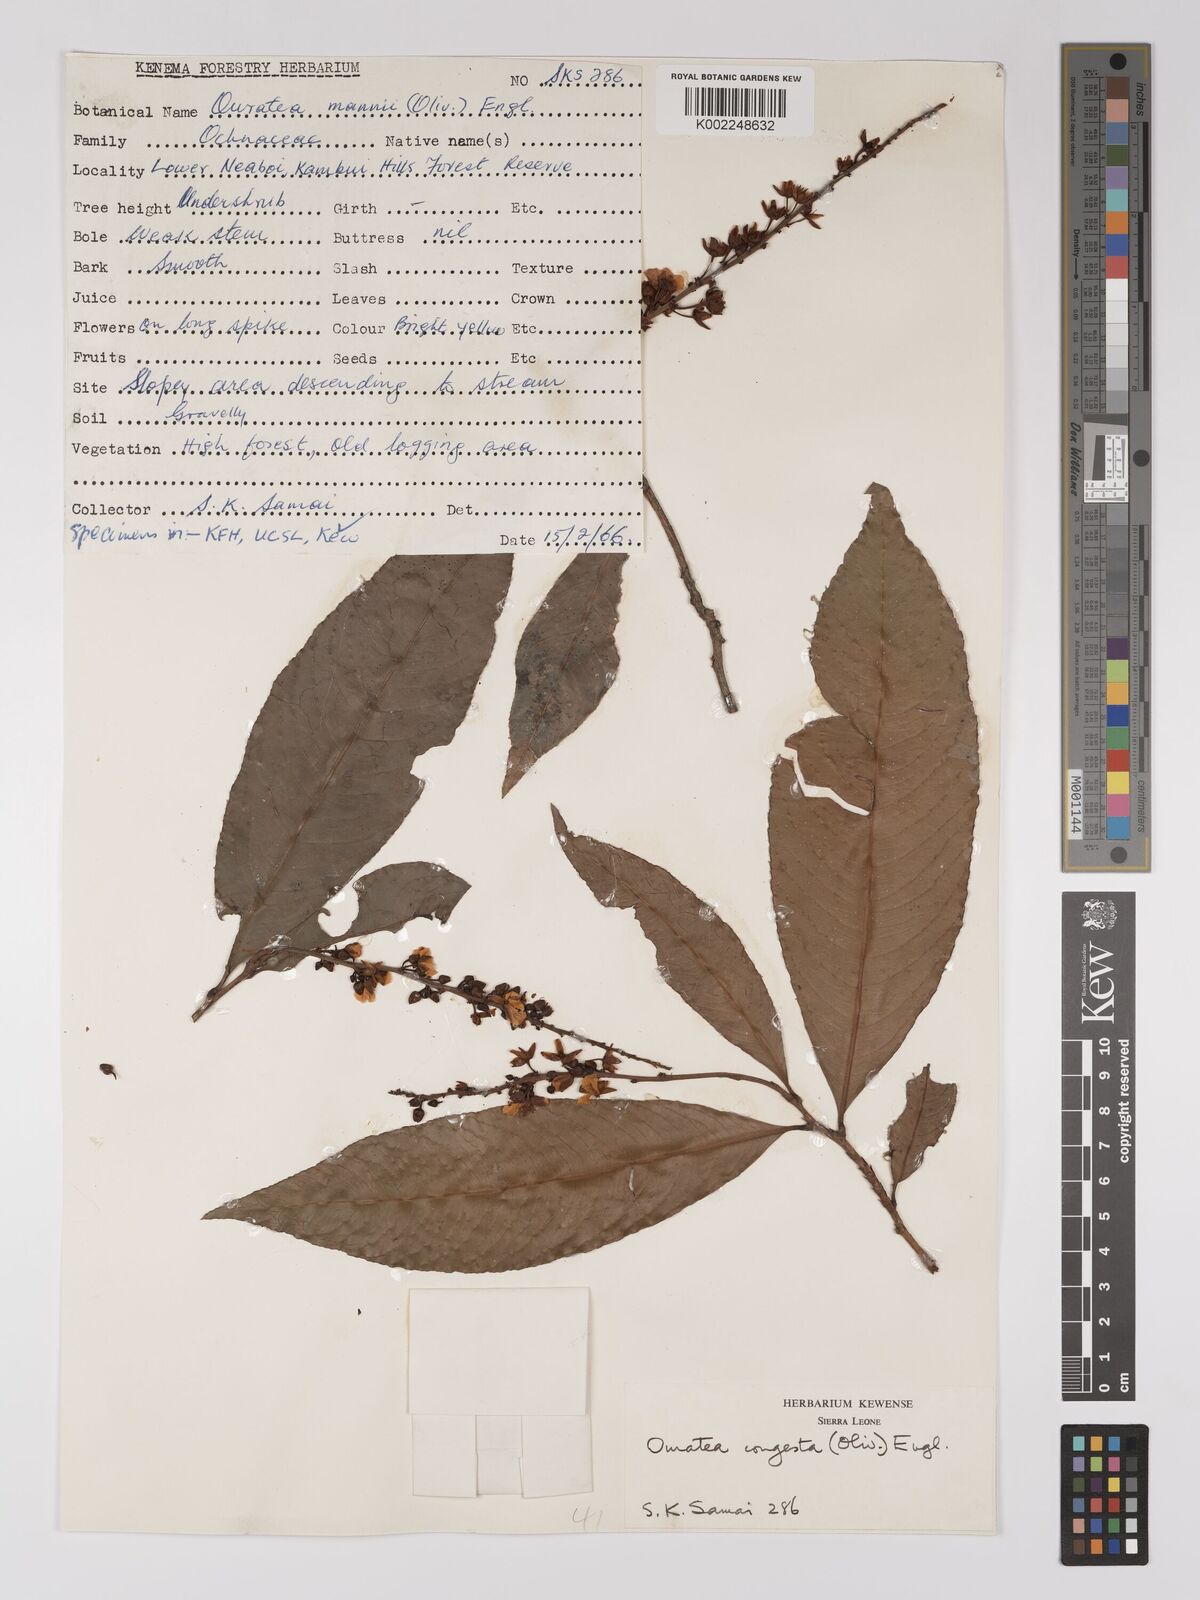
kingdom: Plantae
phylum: Tracheophyta
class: Magnoliopsida
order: Malpighiales
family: Ochnaceae
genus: Campylospermum
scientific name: Campylospermum congestum
